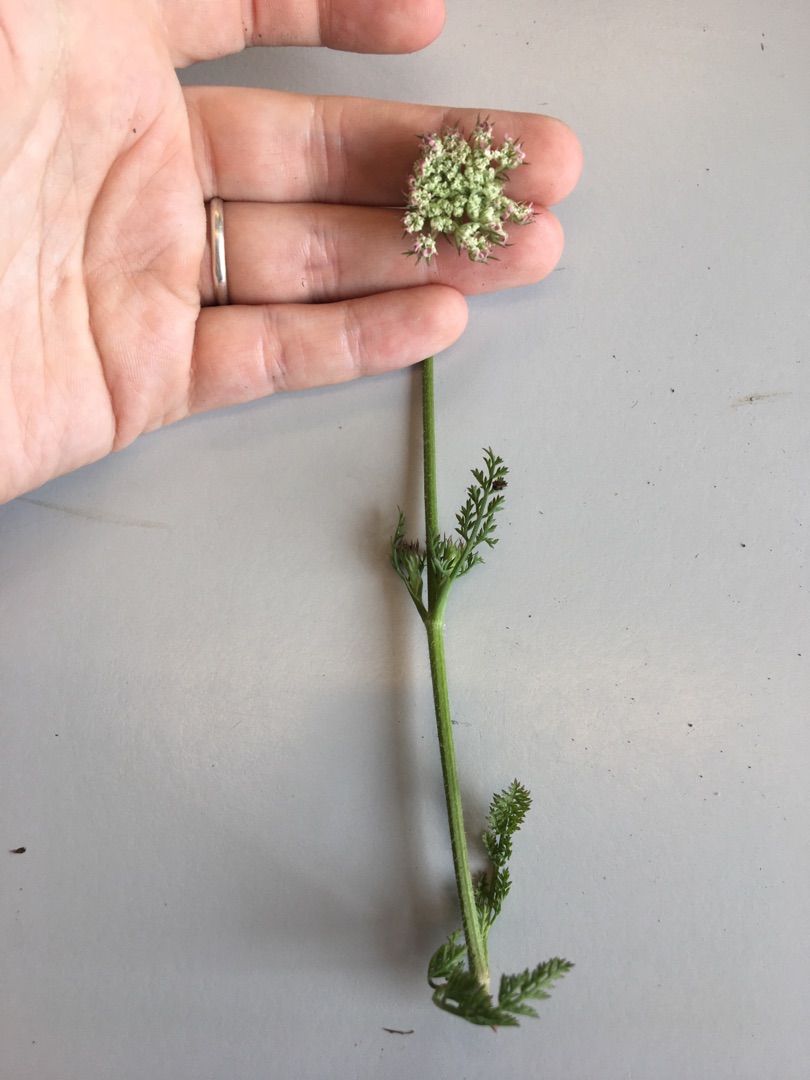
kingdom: Plantae
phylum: Tracheophyta
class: Magnoliopsida
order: Apiales
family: Apiaceae
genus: Daucus
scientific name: Daucus carota
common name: Gulerod
